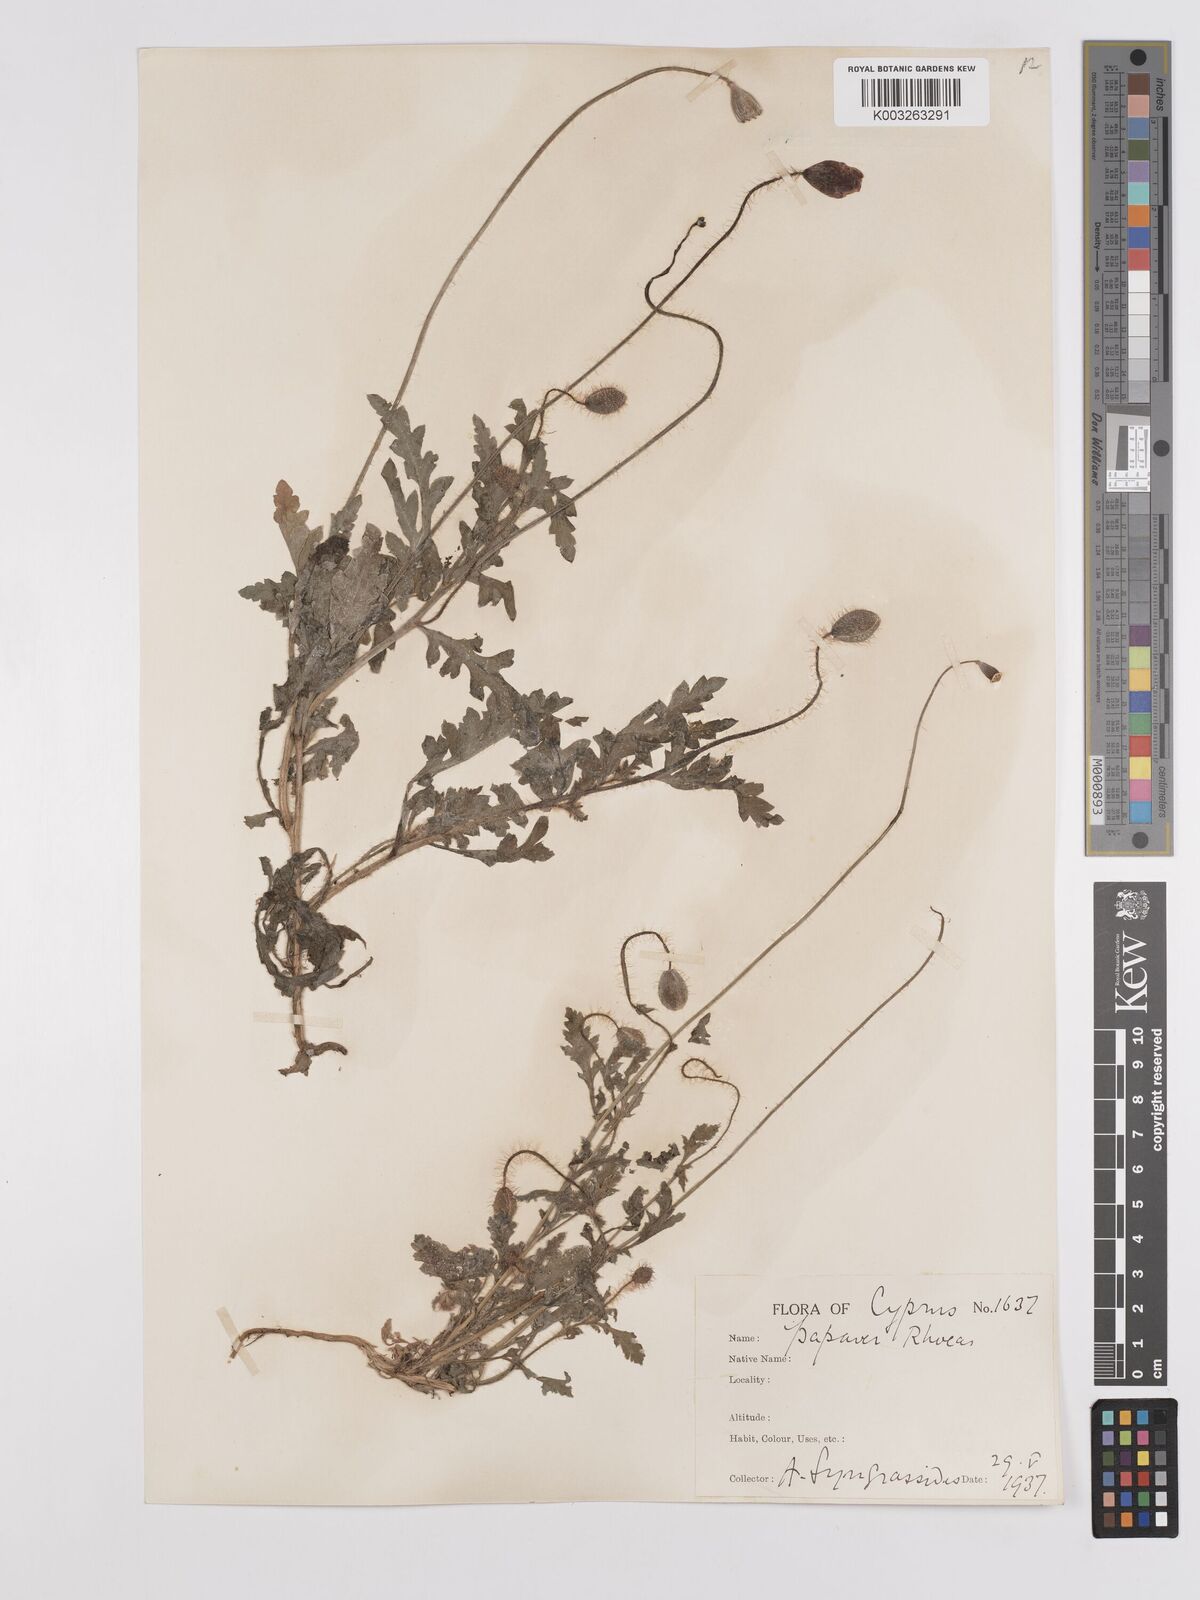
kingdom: Plantae
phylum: Tracheophyta
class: Magnoliopsida
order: Ranunculales
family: Papaveraceae
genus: Papaver
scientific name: Papaver rhoeas
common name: Corn poppy
